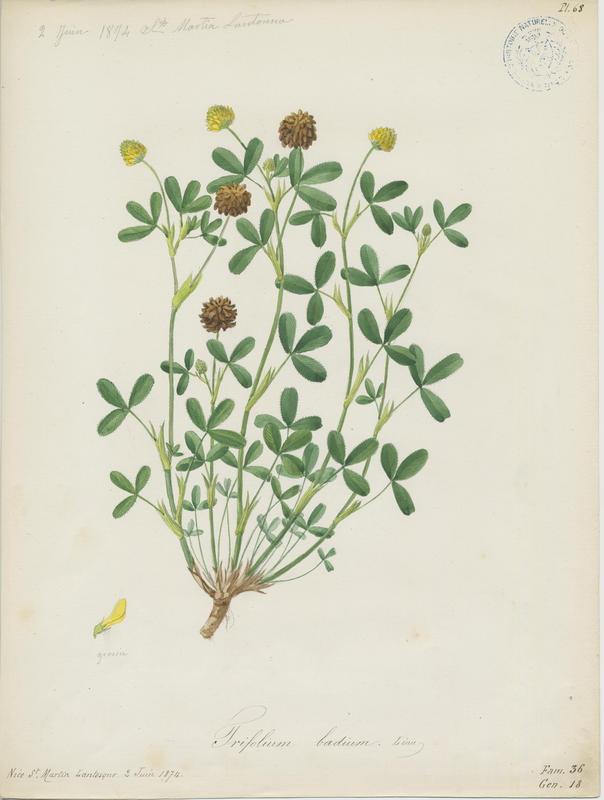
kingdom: Plantae
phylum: Tracheophyta
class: Magnoliopsida
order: Fabales
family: Fabaceae
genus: Trifolium
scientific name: Trifolium badium
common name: Brown clover
